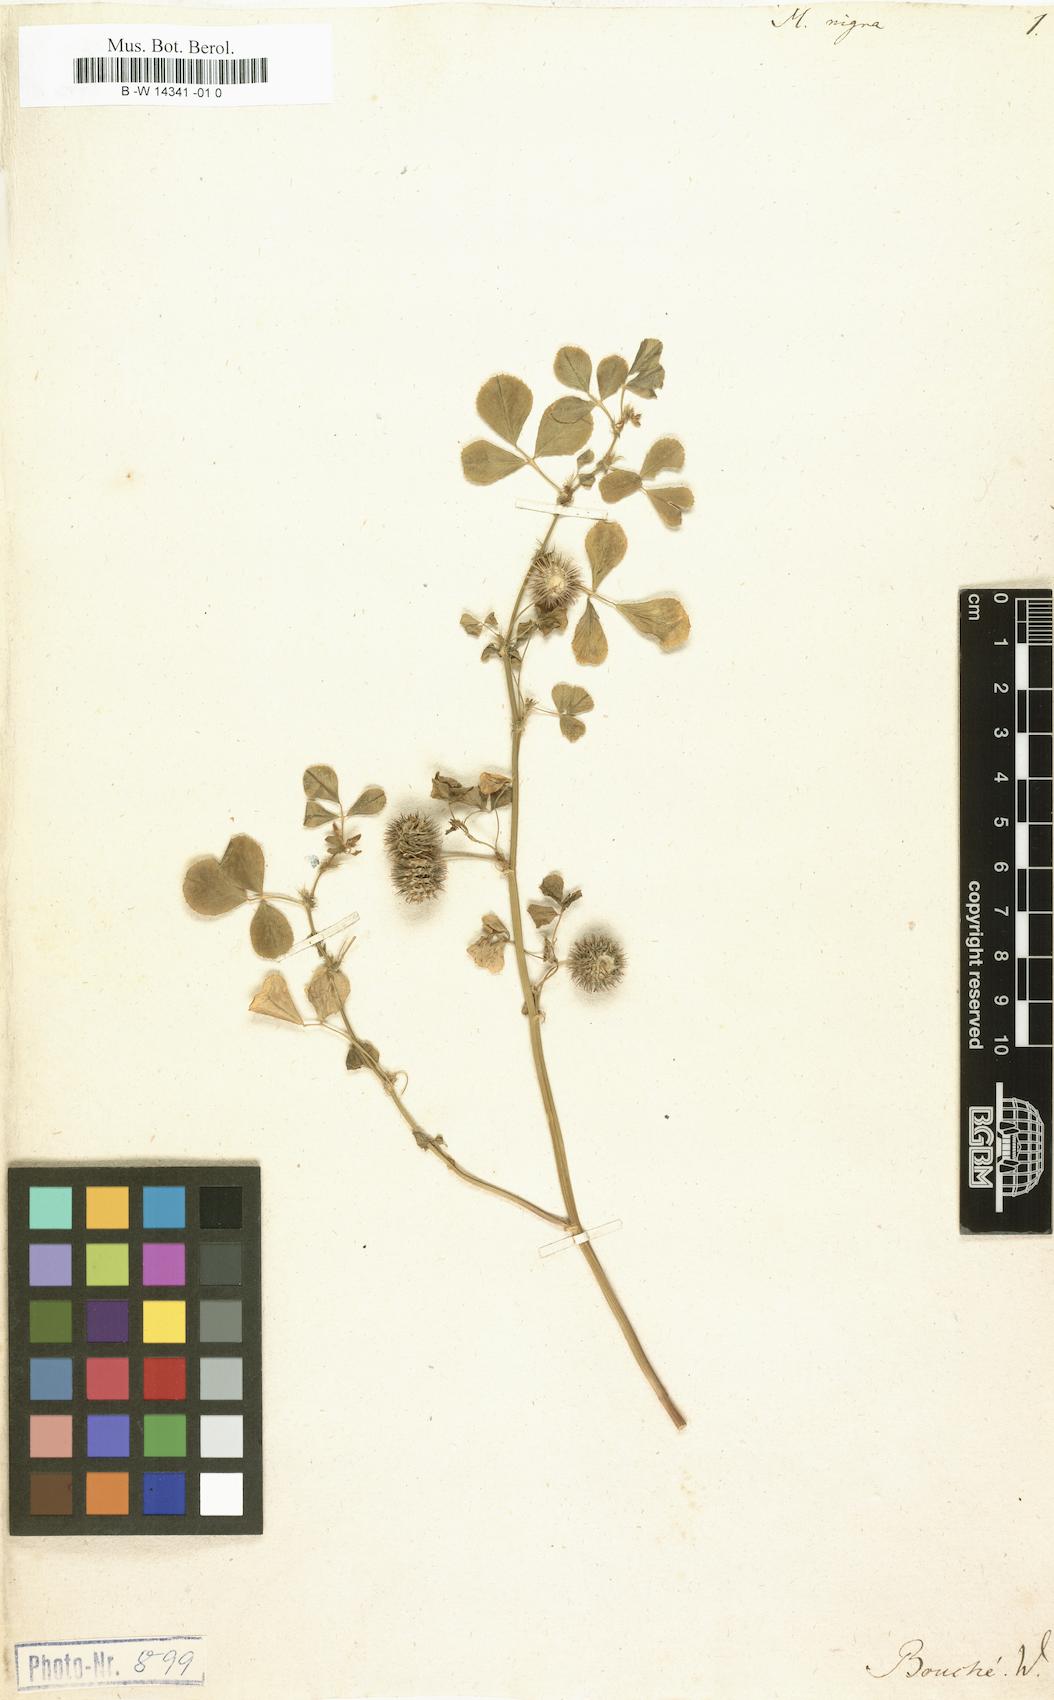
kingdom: Plantae
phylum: Tracheophyta
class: Magnoliopsida
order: Fabales
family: Fabaceae
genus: Medicago
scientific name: Medicago nigra
